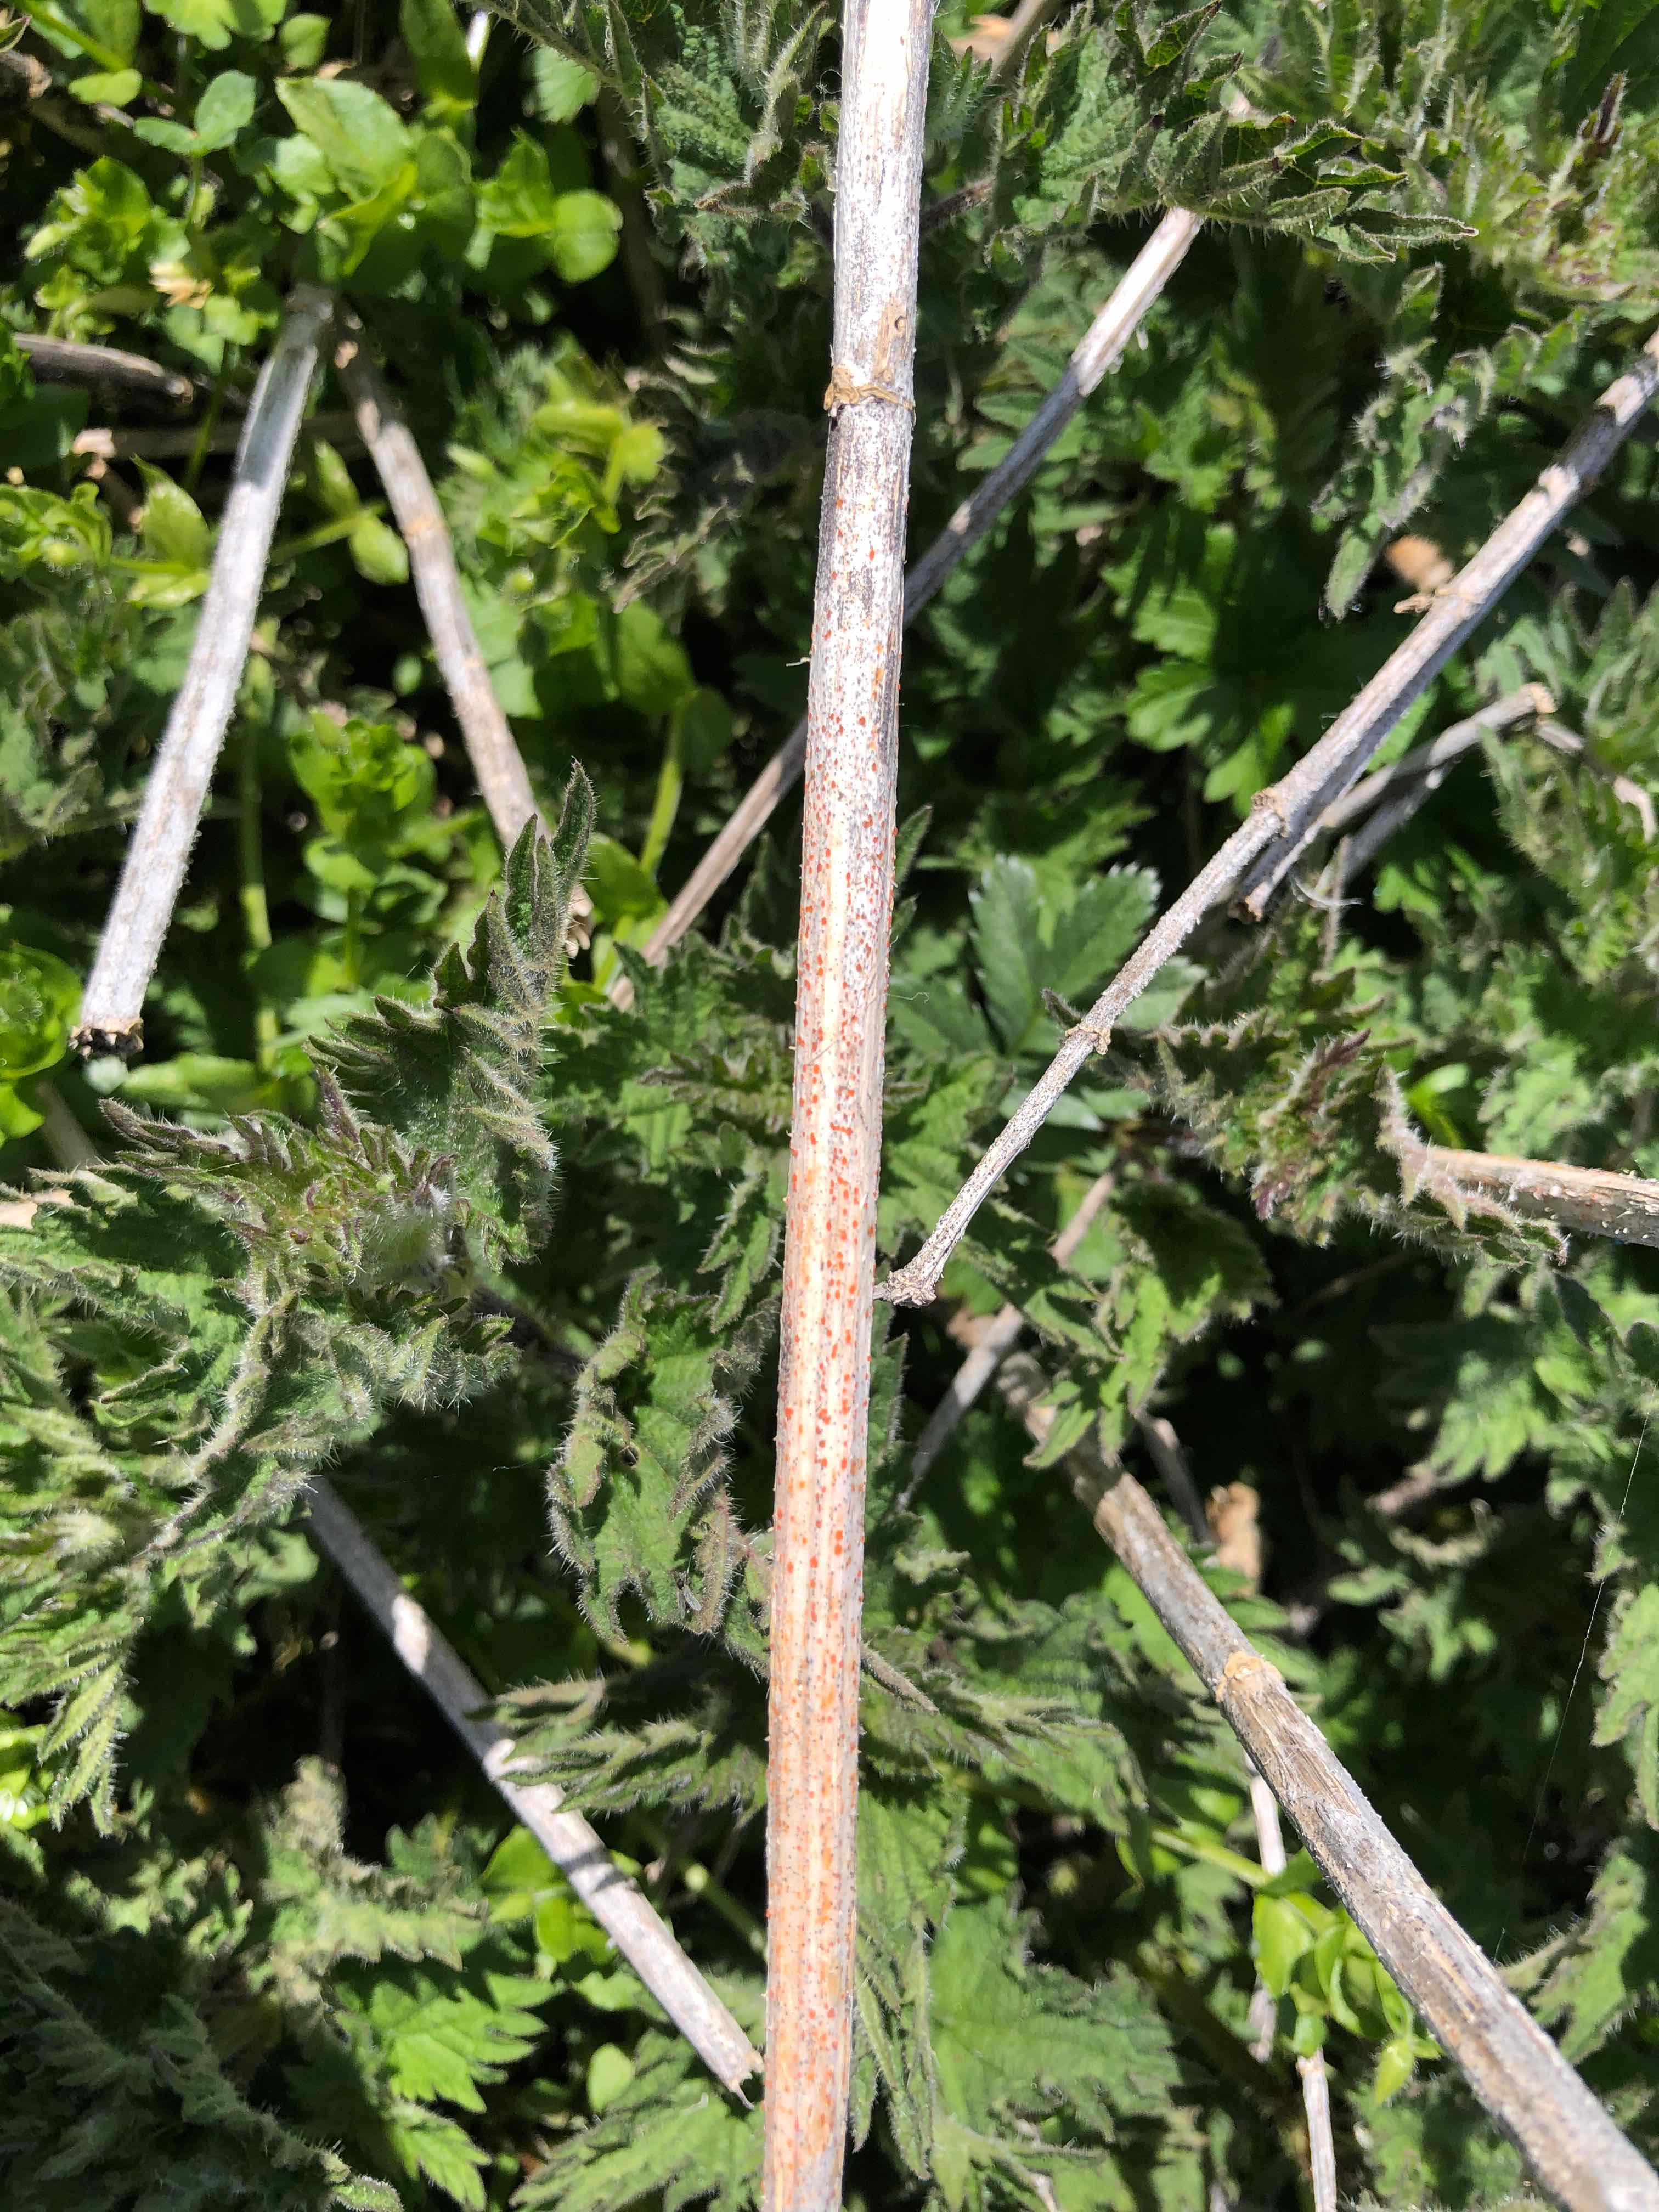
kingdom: Fungi
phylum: Ascomycota
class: Leotiomycetes
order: Helotiales
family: Calloriaceae
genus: Calloria
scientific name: Calloria urticae
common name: nælde-orangeskive
